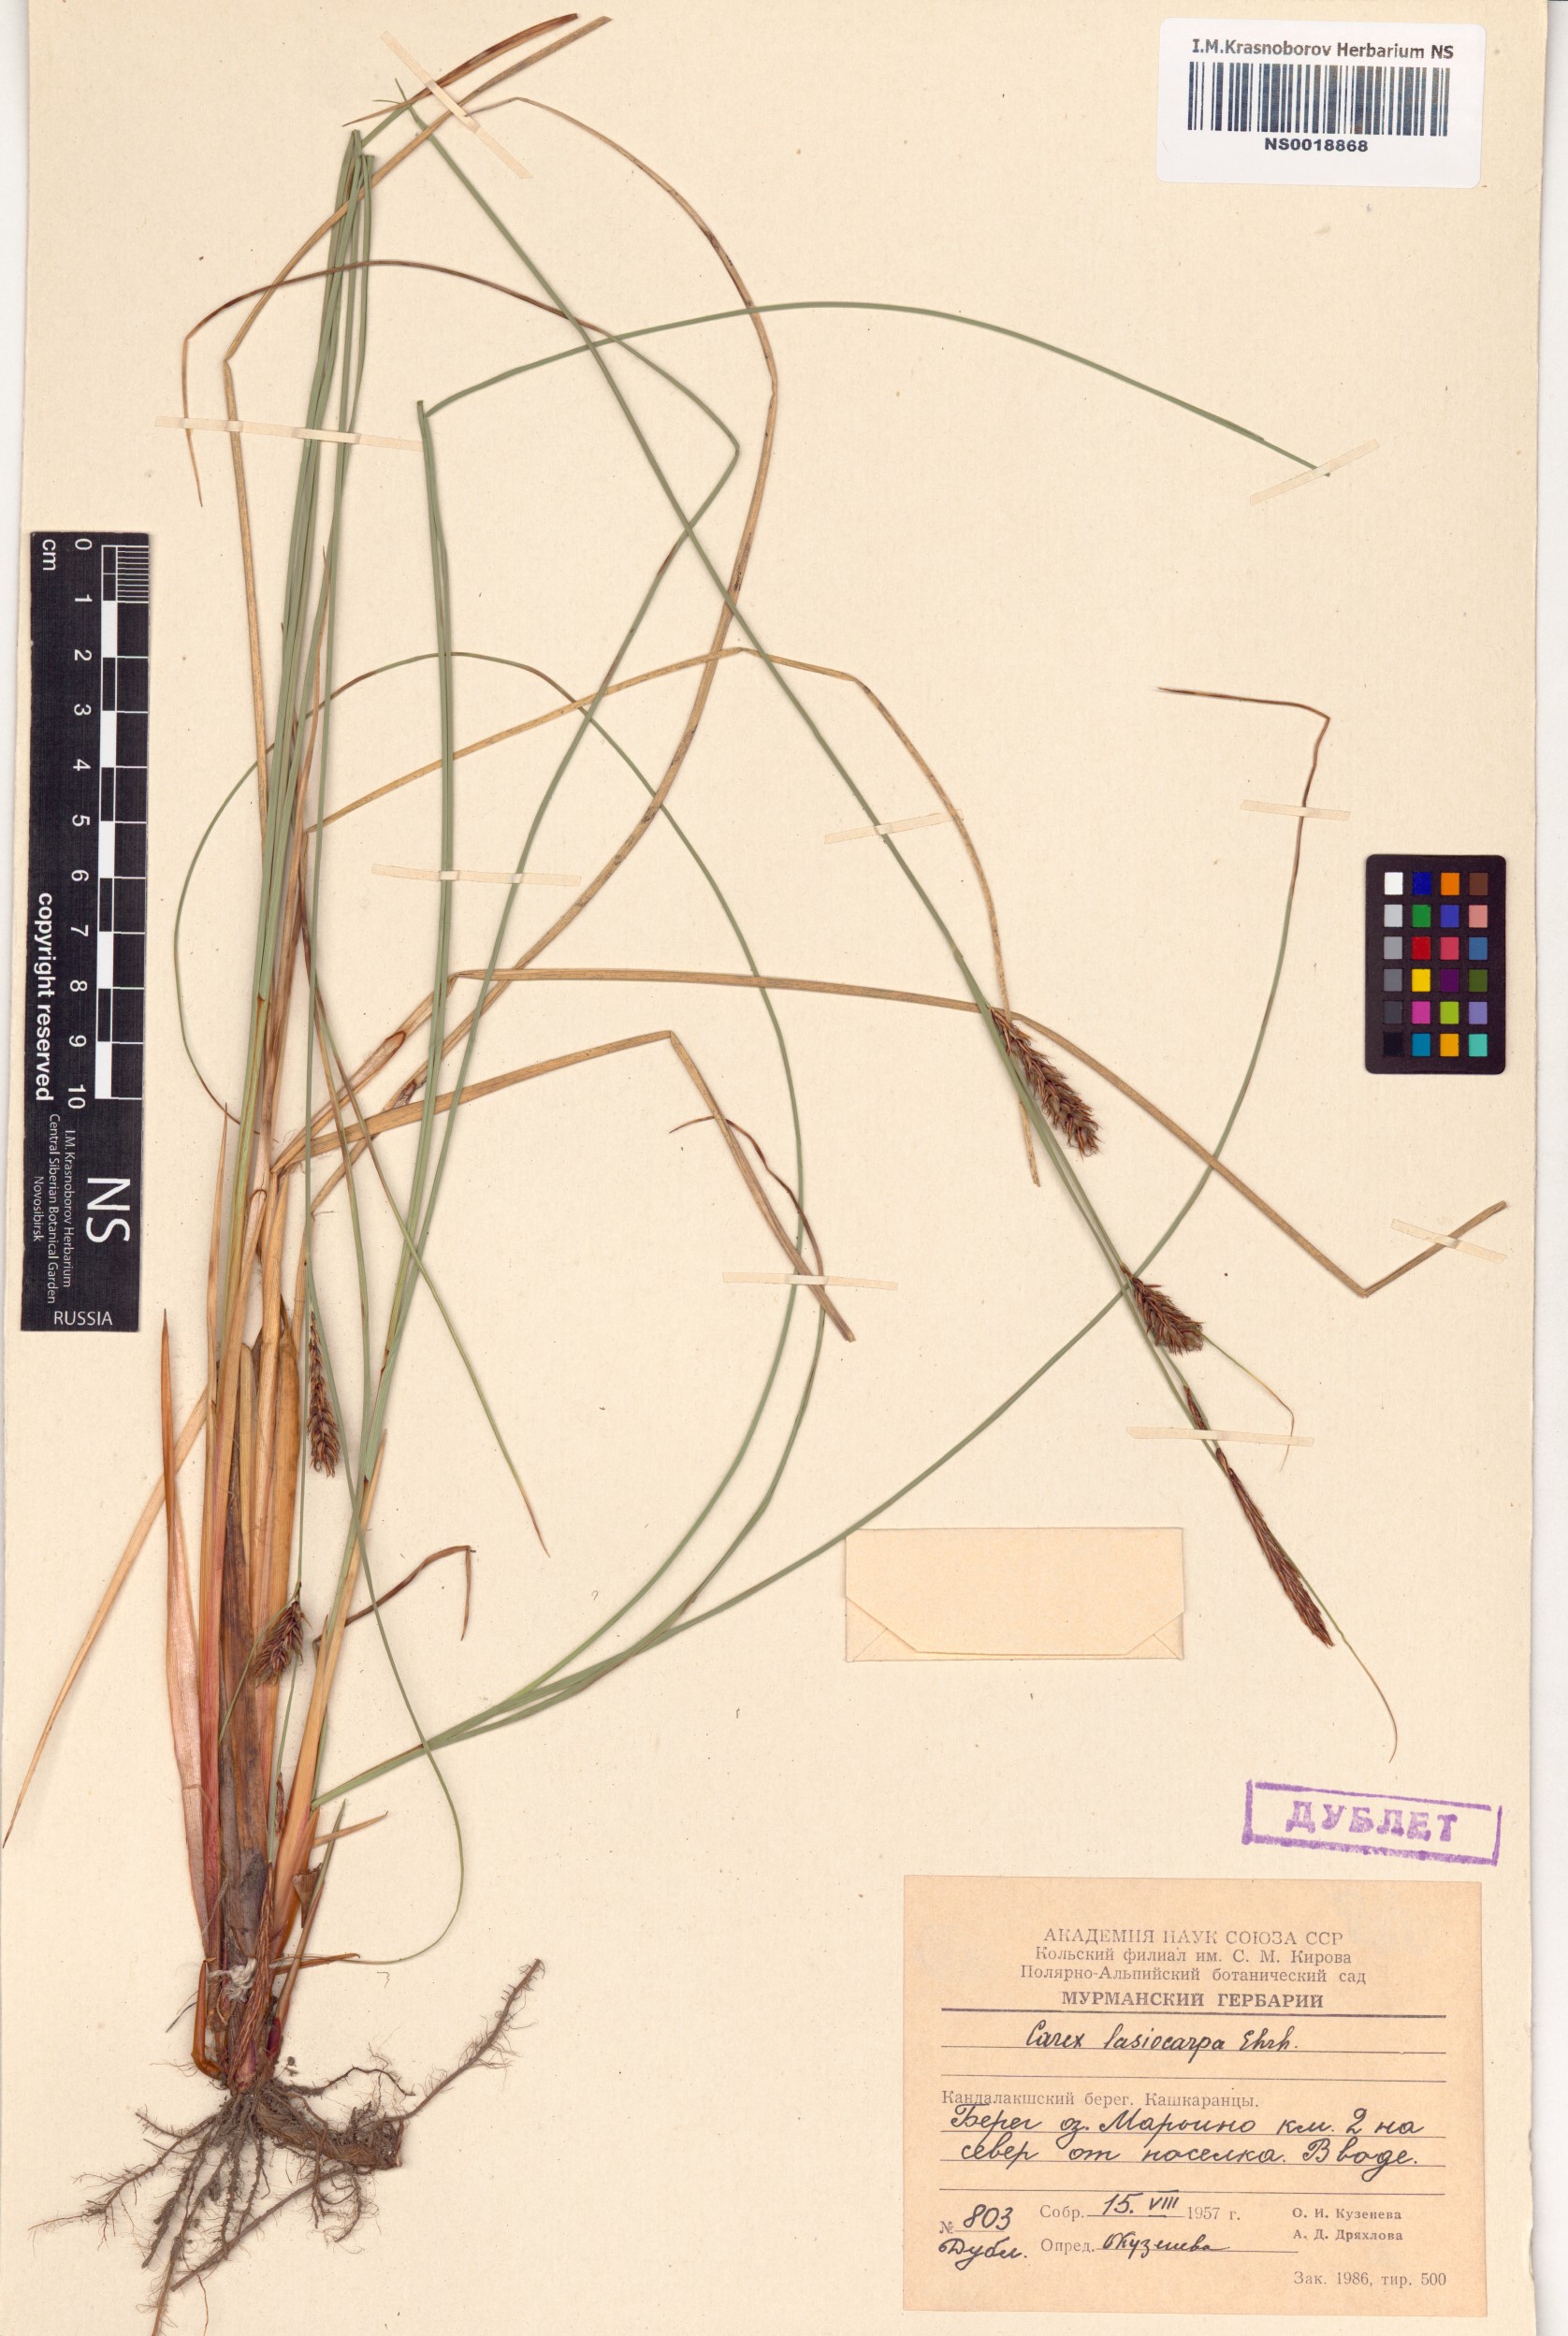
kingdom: Plantae
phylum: Tracheophyta
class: Liliopsida
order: Poales
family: Cyperaceae
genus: Carex
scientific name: Carex lasiocarpa
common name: Slender sedge
